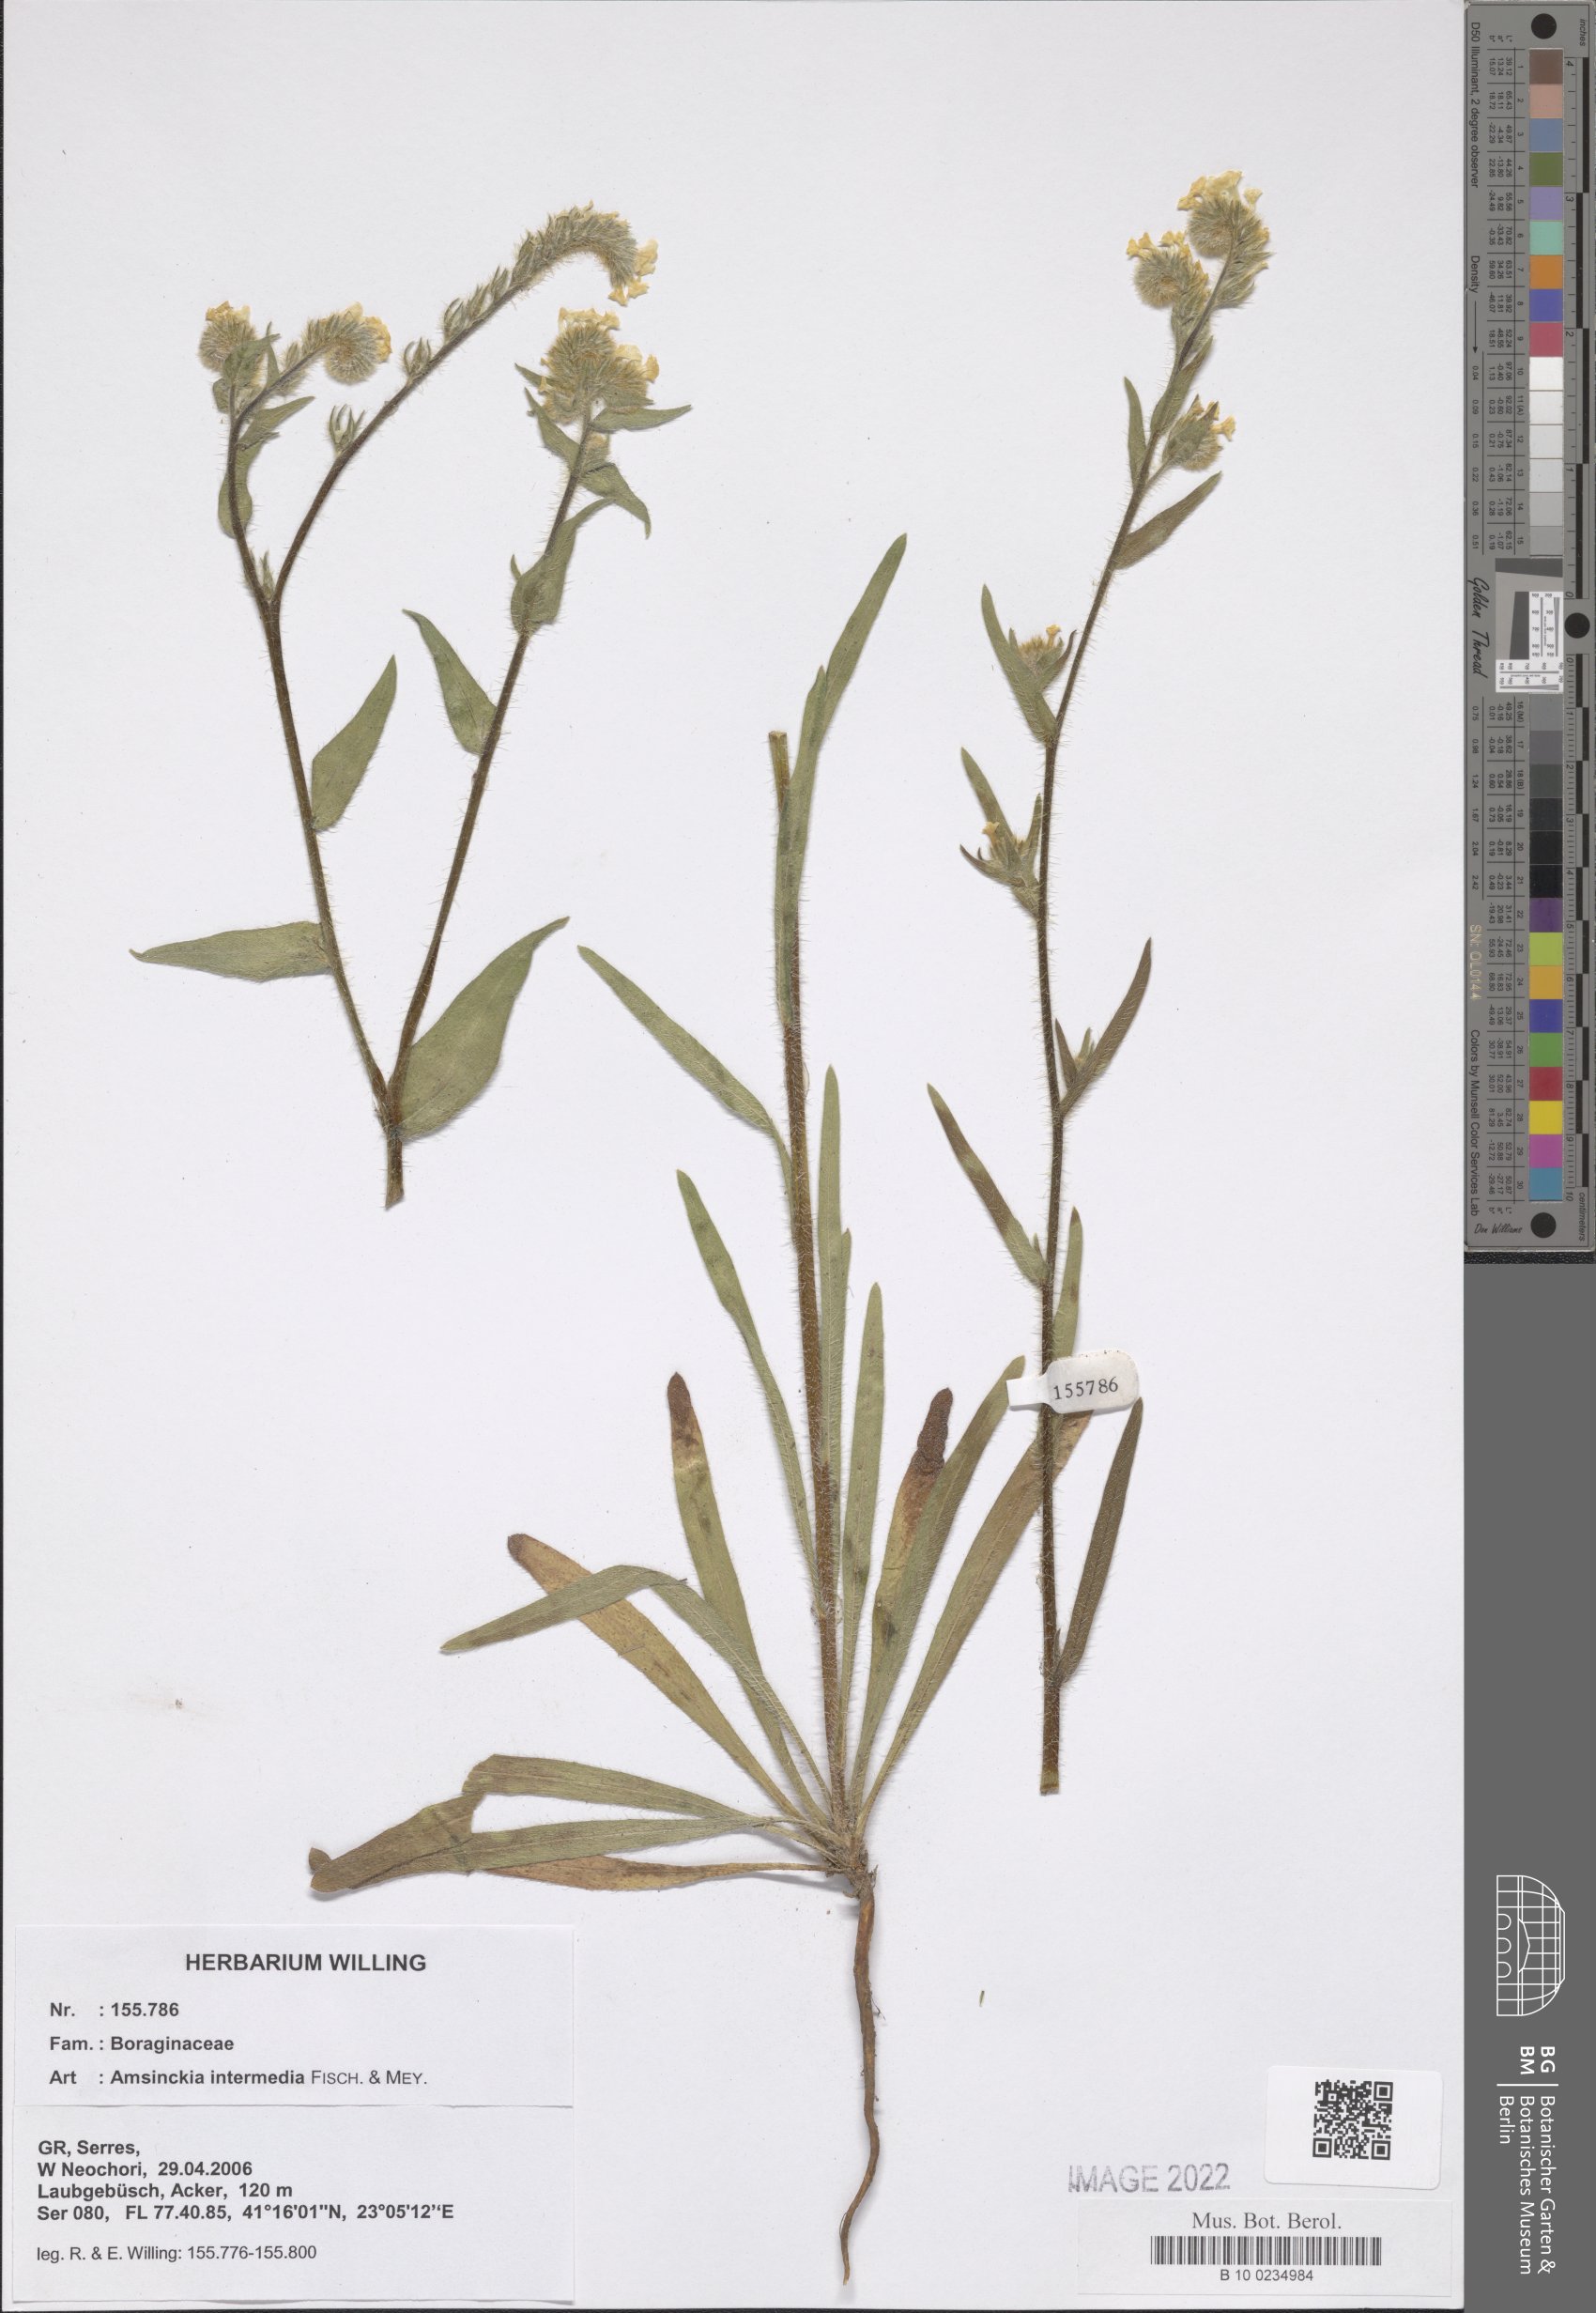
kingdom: Plantae
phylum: Tracheophyta
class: Magnoliopsida
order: Boraginales
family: Boraginaceae
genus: Amsinckia
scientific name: Amsinckia menziesii
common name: Menzies' fiddleneck
